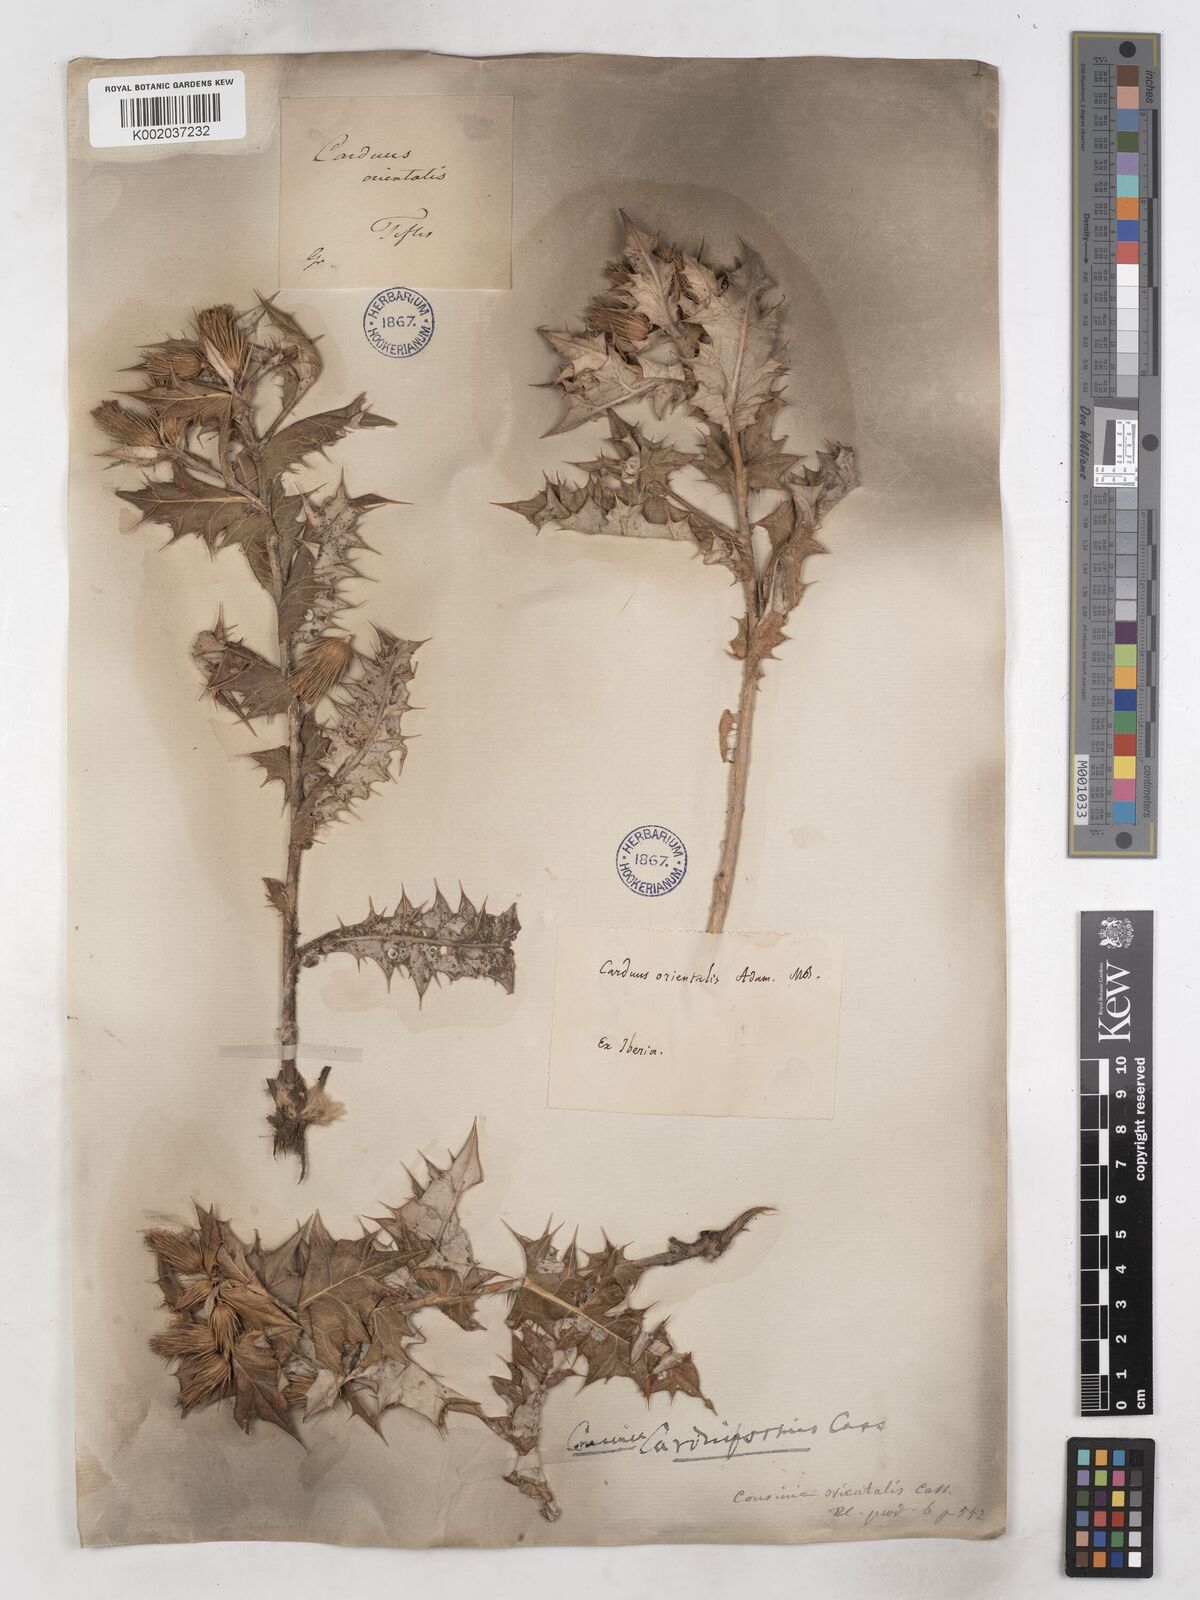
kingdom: Plantae
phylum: Tracheophyta
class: Magnoliopsida
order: Asterales
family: Asteraceae
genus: Cousinia
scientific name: Cousinia
